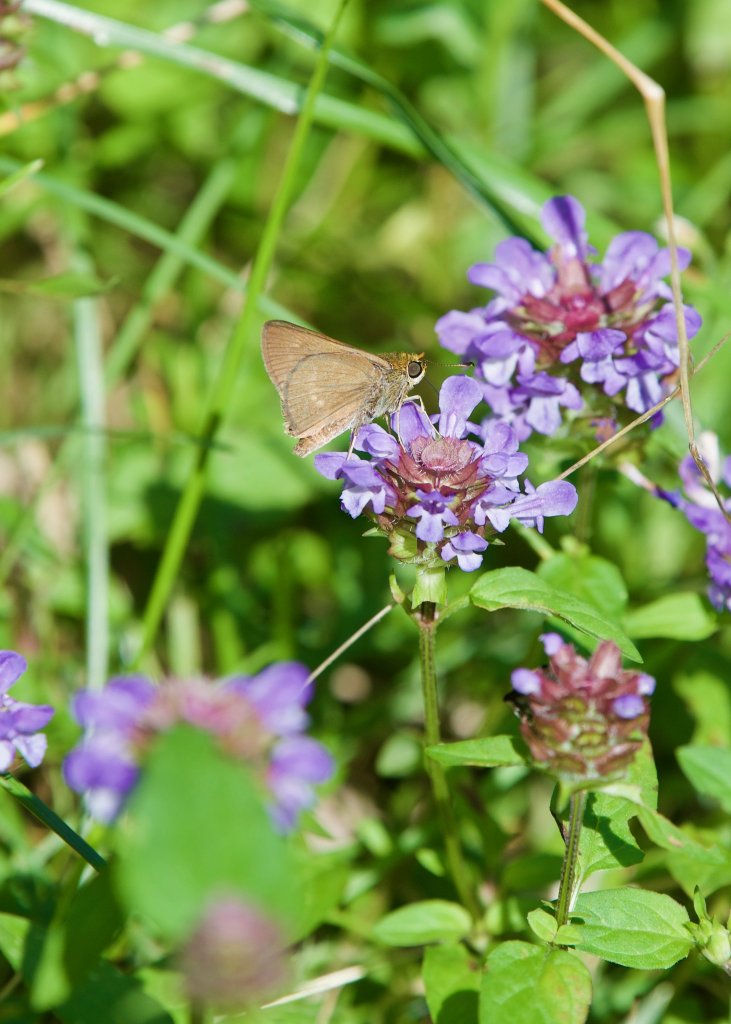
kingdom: Animalia
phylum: Arthropoda
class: Insecta
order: Lepidoptera
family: Hesperiidae
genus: Euphyes
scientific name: Euphyes vestris
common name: Dun Skipper
